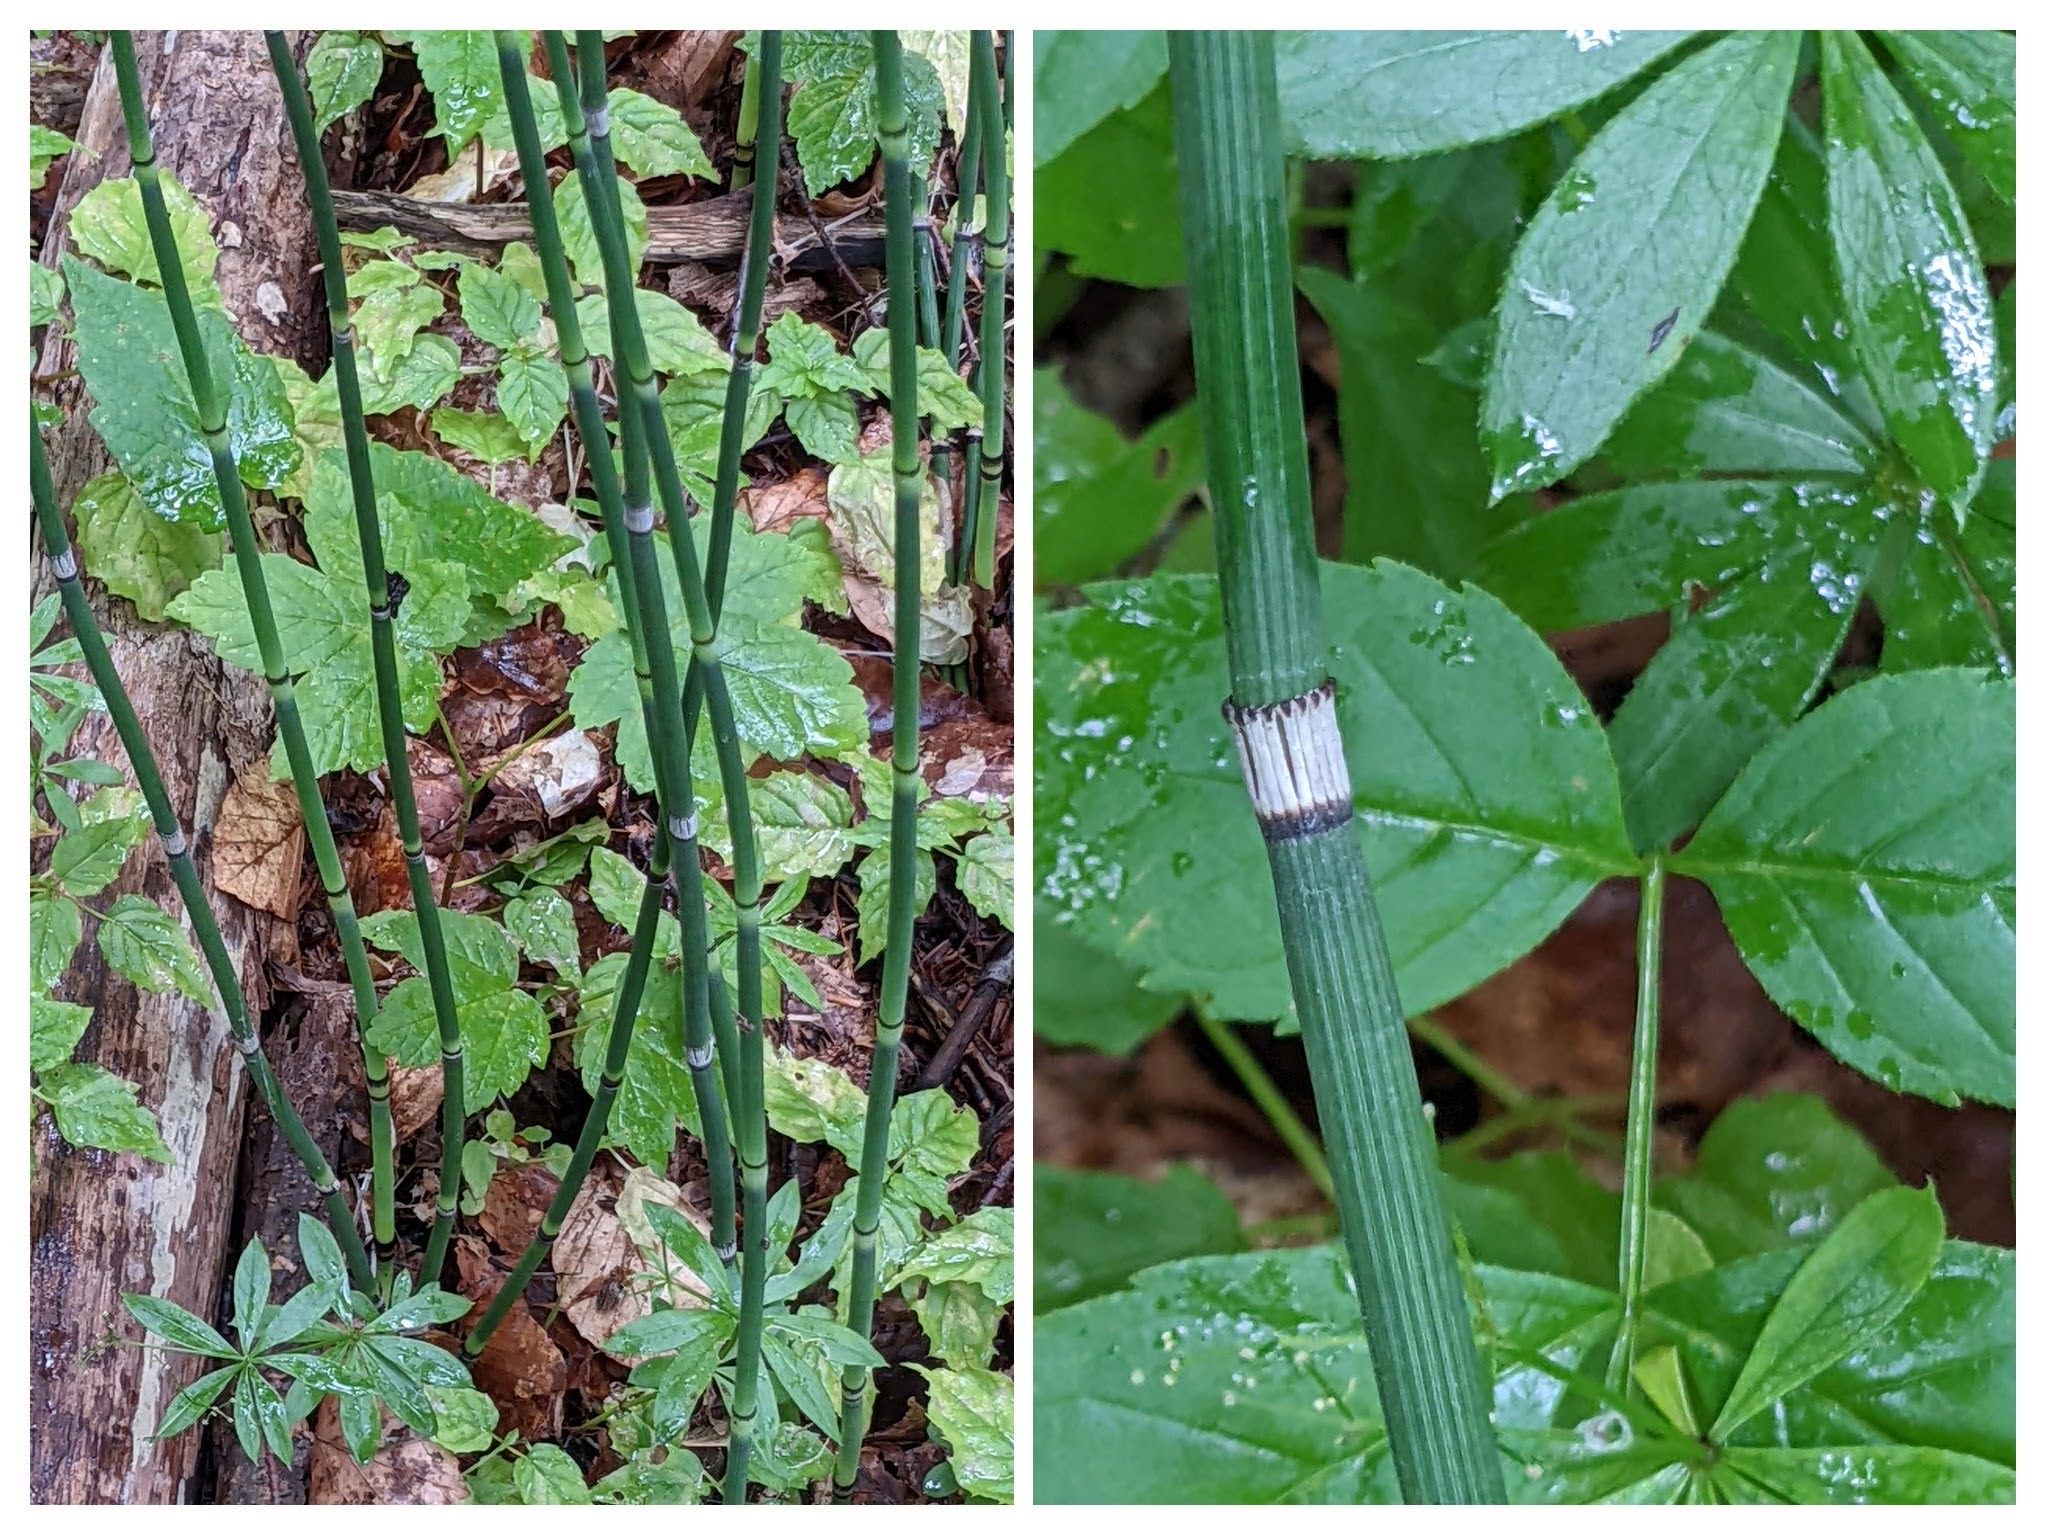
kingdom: Plantae
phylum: Tracheophyta
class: Polypodiopsida
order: Equisetales
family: Equisetaceae
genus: Equisetum
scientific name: Equisetum hyemale
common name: Skavgræs
